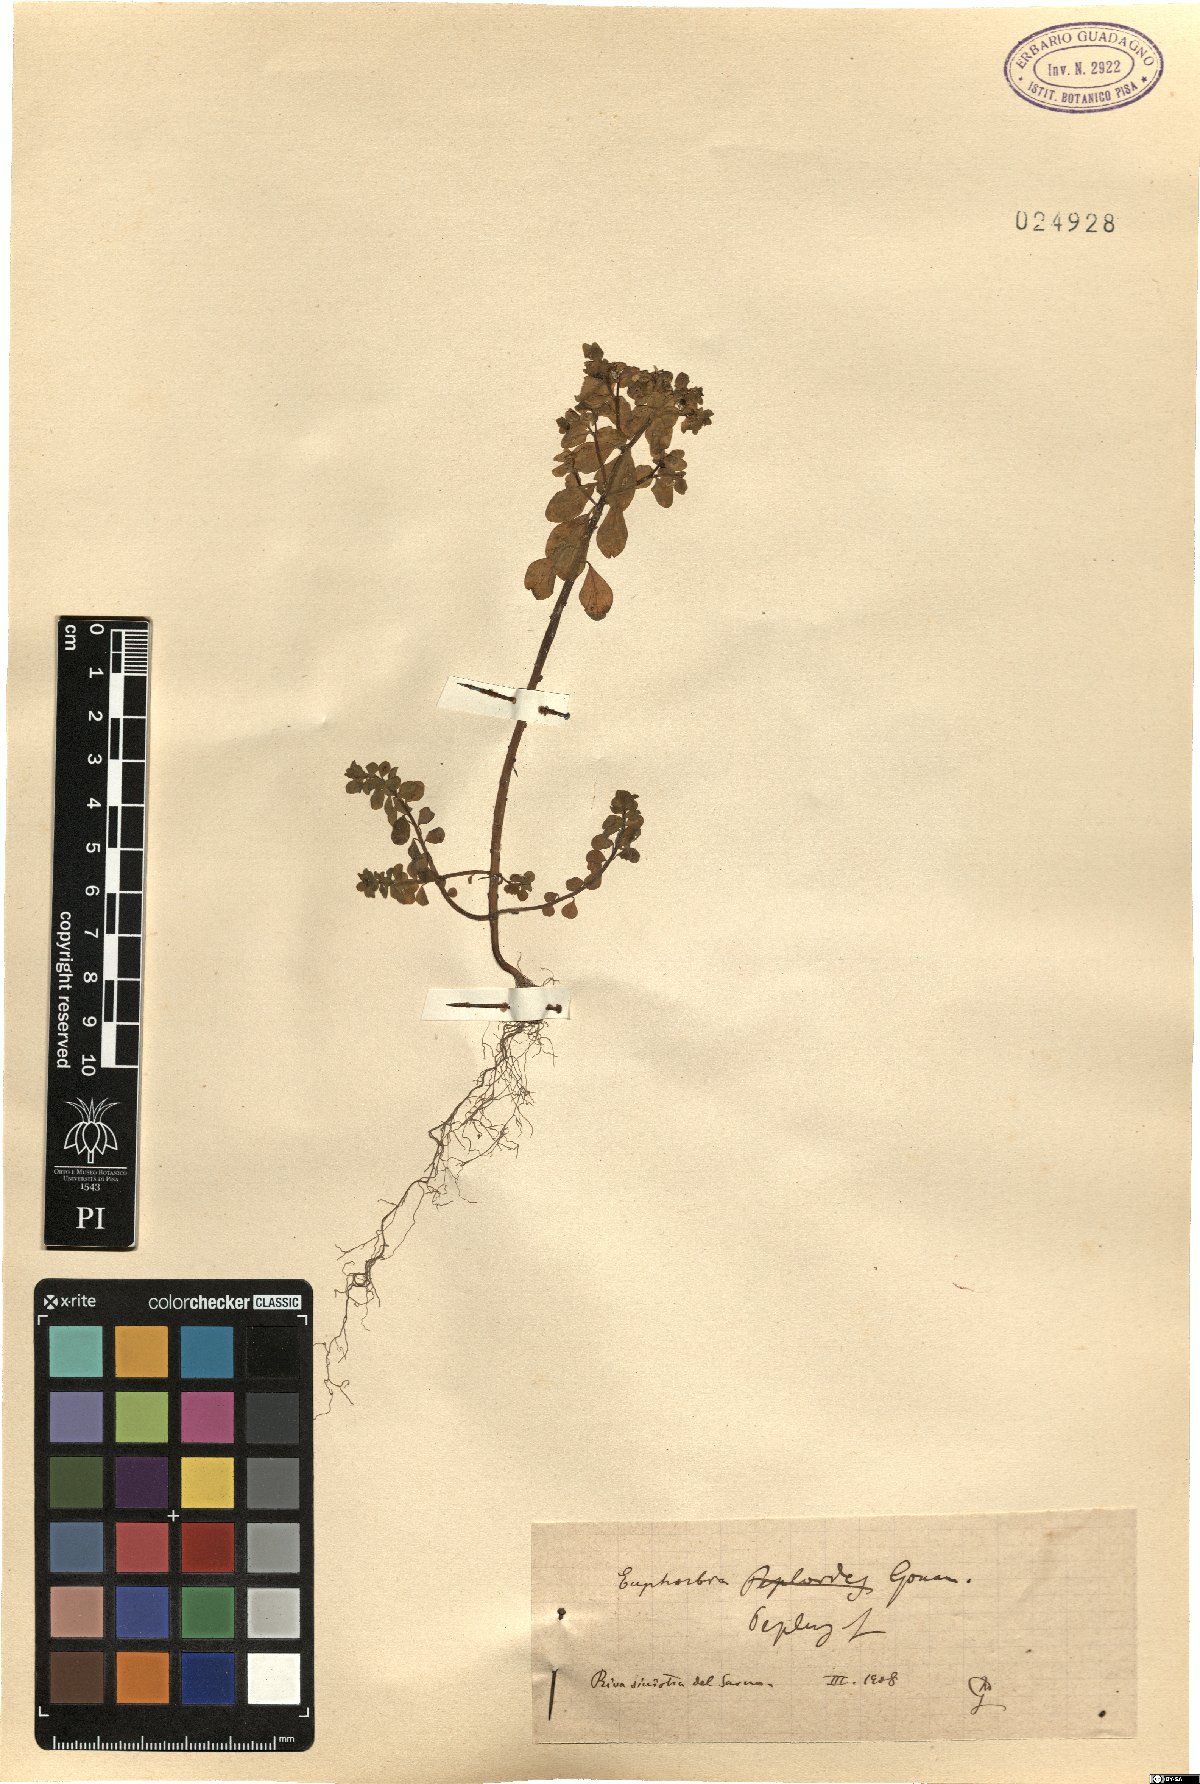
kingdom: Plantae
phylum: Tracheophyta
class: Magnoliopsida
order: Malpighiales
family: Euphorbiaceae
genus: Euphorbia
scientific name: Euphorbia peplus
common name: Petty spurge
